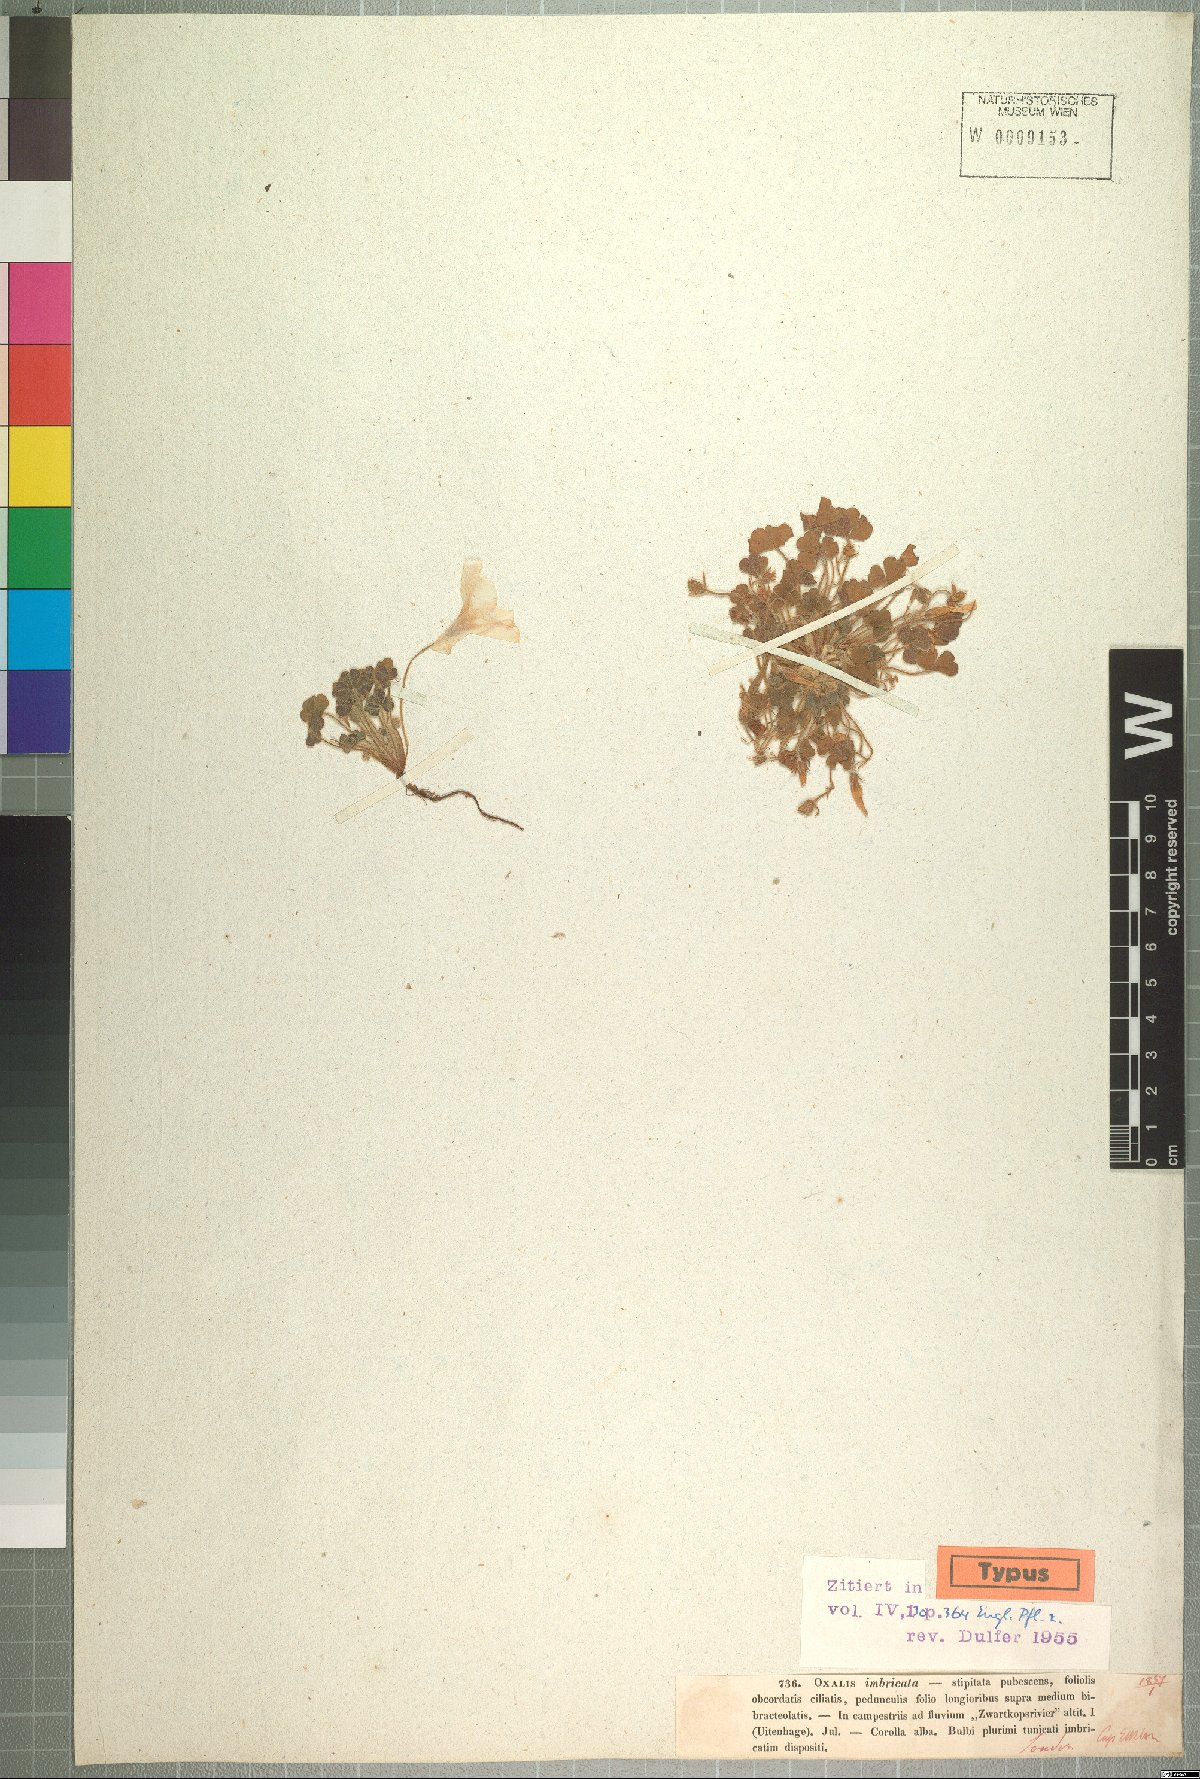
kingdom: Plantae
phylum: Tracheophyta
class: Magnoliopsida
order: Oxalidales
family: Oxalidaceae
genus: Oxalis
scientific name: Oxalis imbricata
